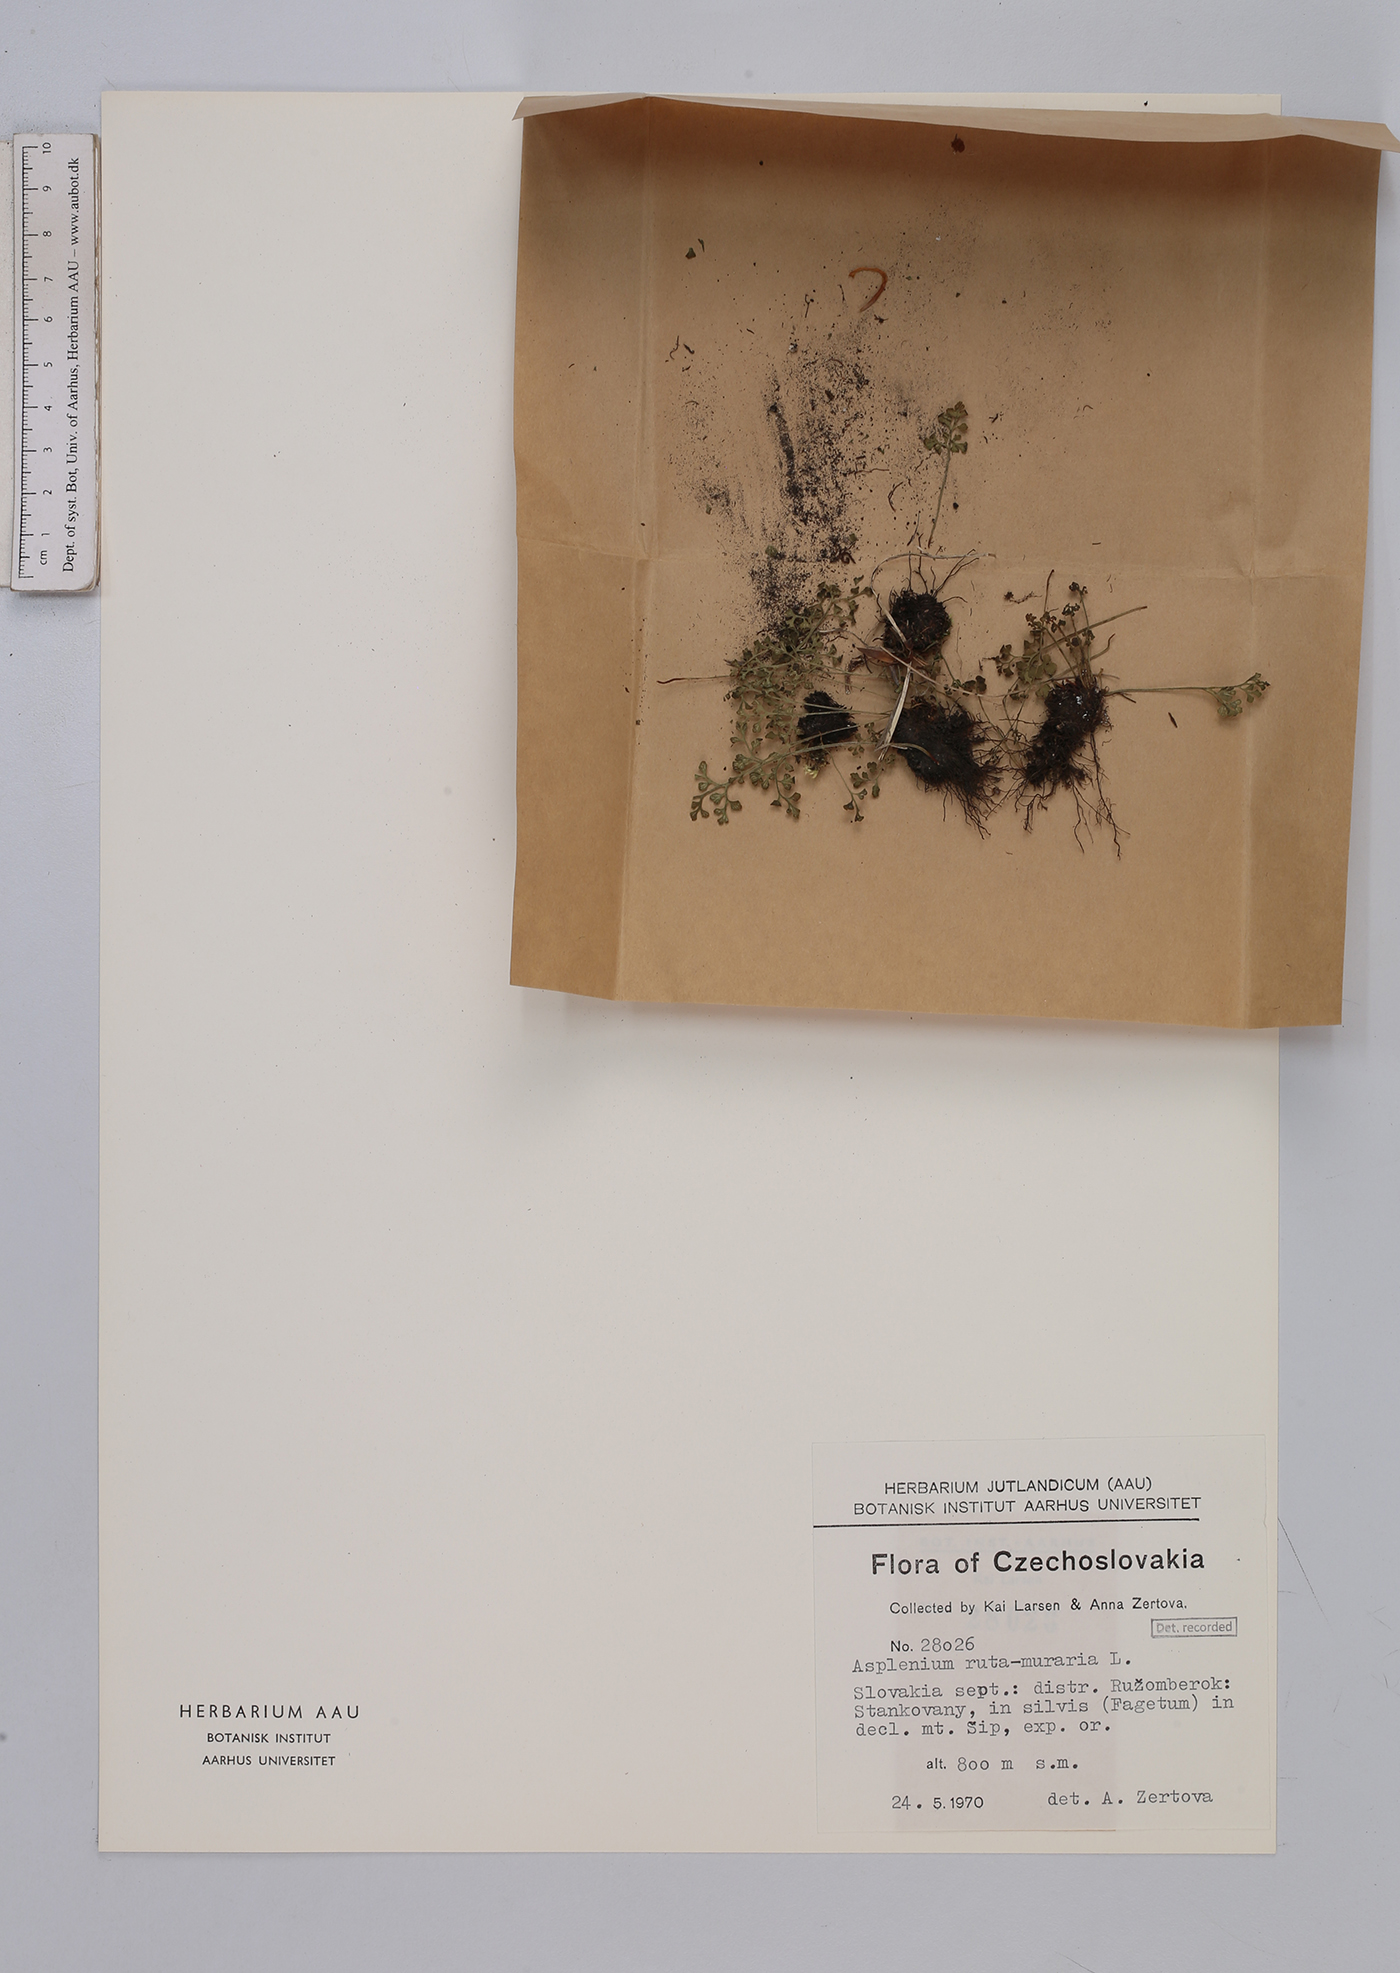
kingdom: Plantae
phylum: Tracheophyta
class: Polypodiopsida
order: Polypodiales
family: Aspleniaceae
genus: Asplenium
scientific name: Asplenium ruta-muraria
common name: Wall-rue
